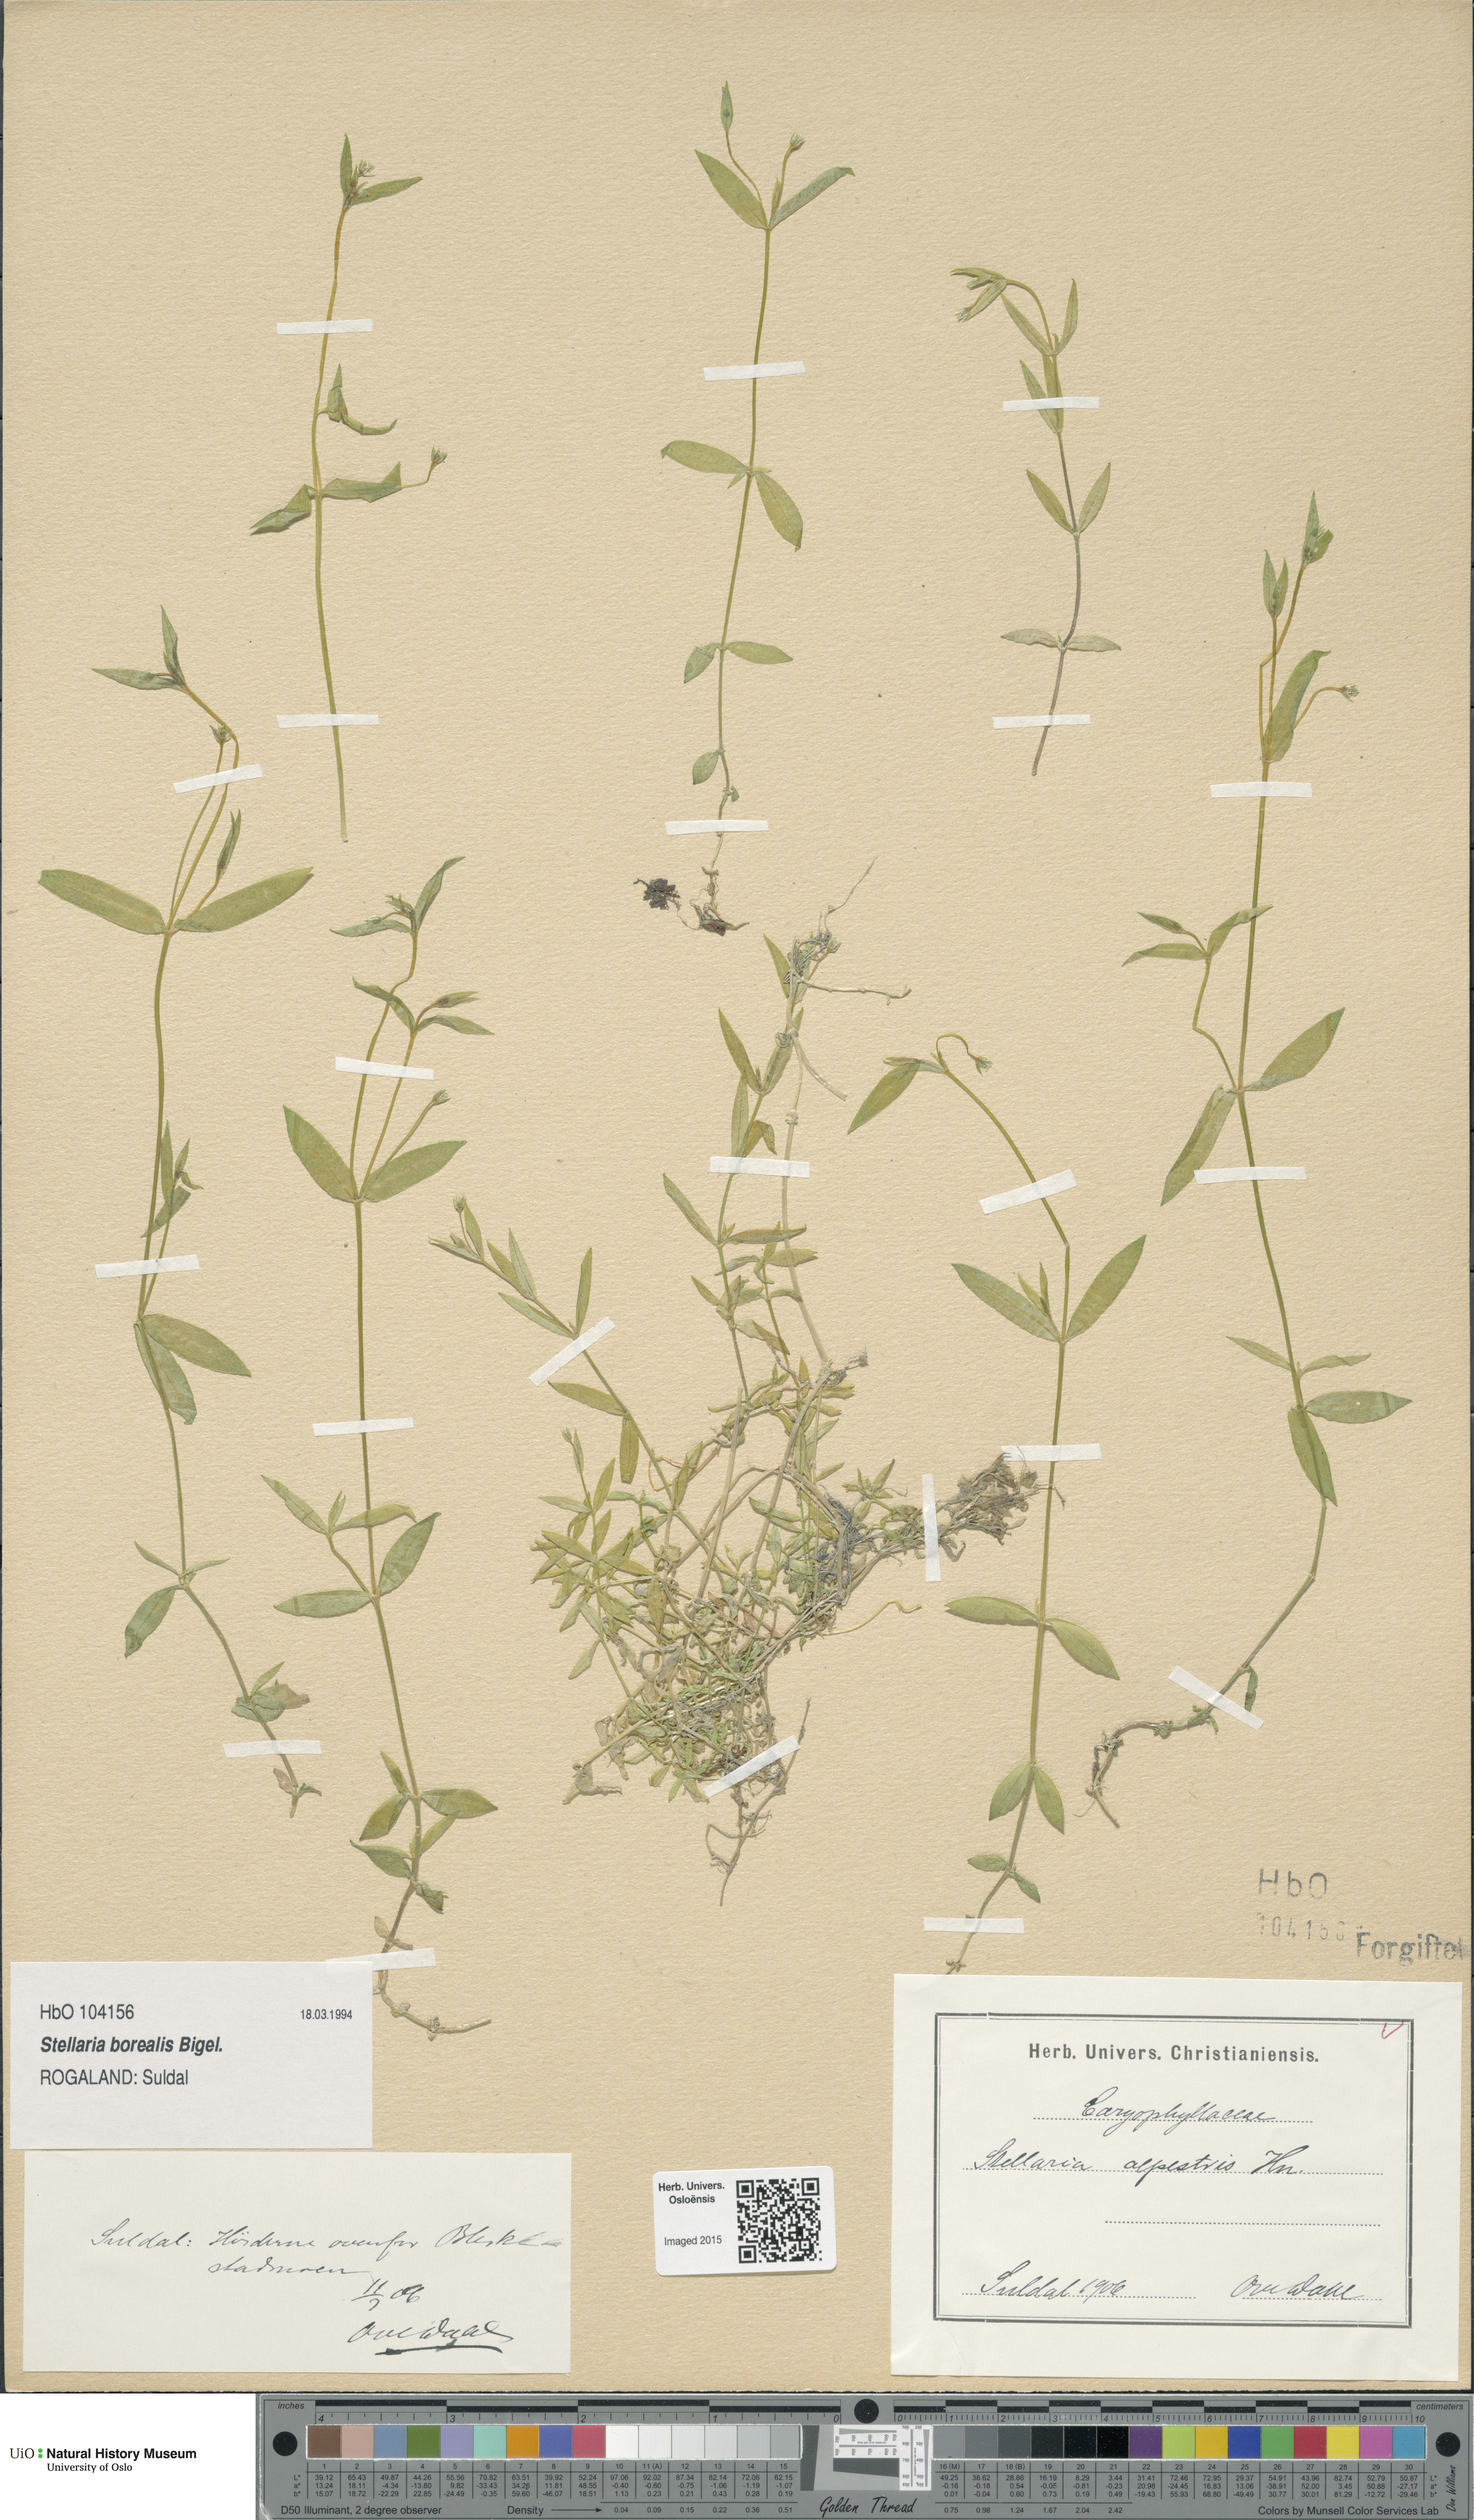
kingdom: Plantae
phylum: Tracheophyta
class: Magnoliopsida
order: Caryophyllales
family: Caryophyllaceae
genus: Stellaria
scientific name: Stellaria alpestris
